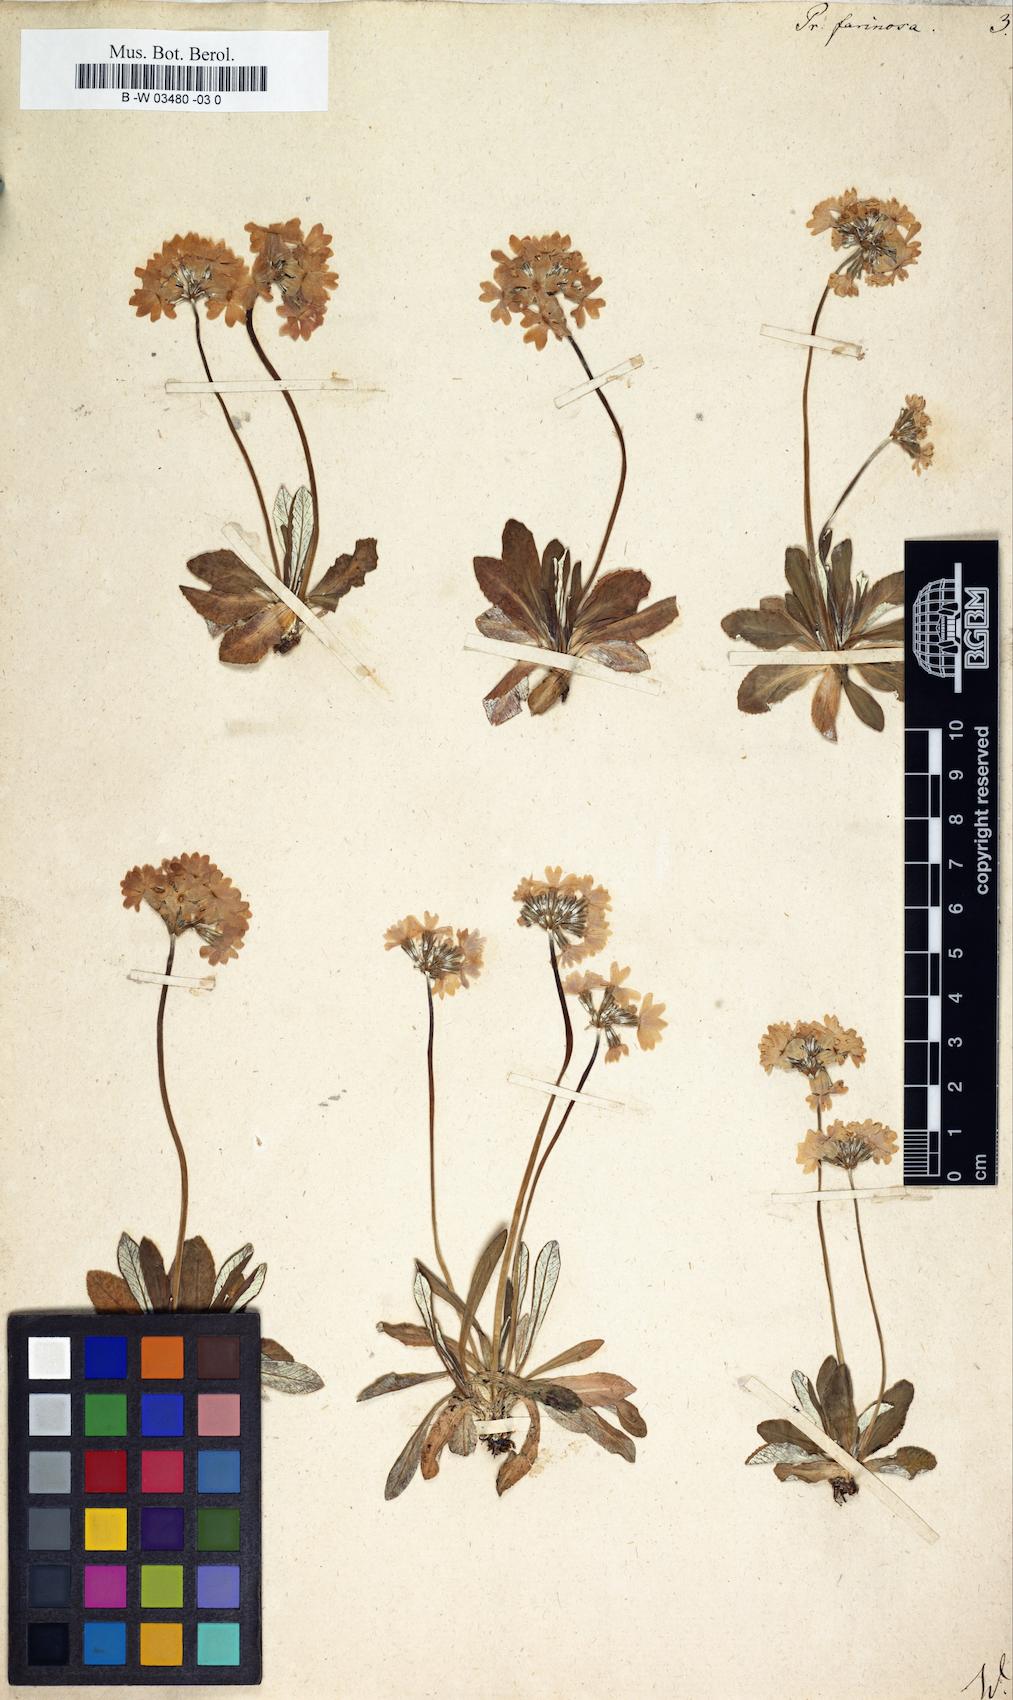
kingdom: Plantae
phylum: Tracheophyta
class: Magnoliopsida
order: Ericales
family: Primulaceae
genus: Primula
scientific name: Primula farinosa
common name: Bird's-eye primrose
